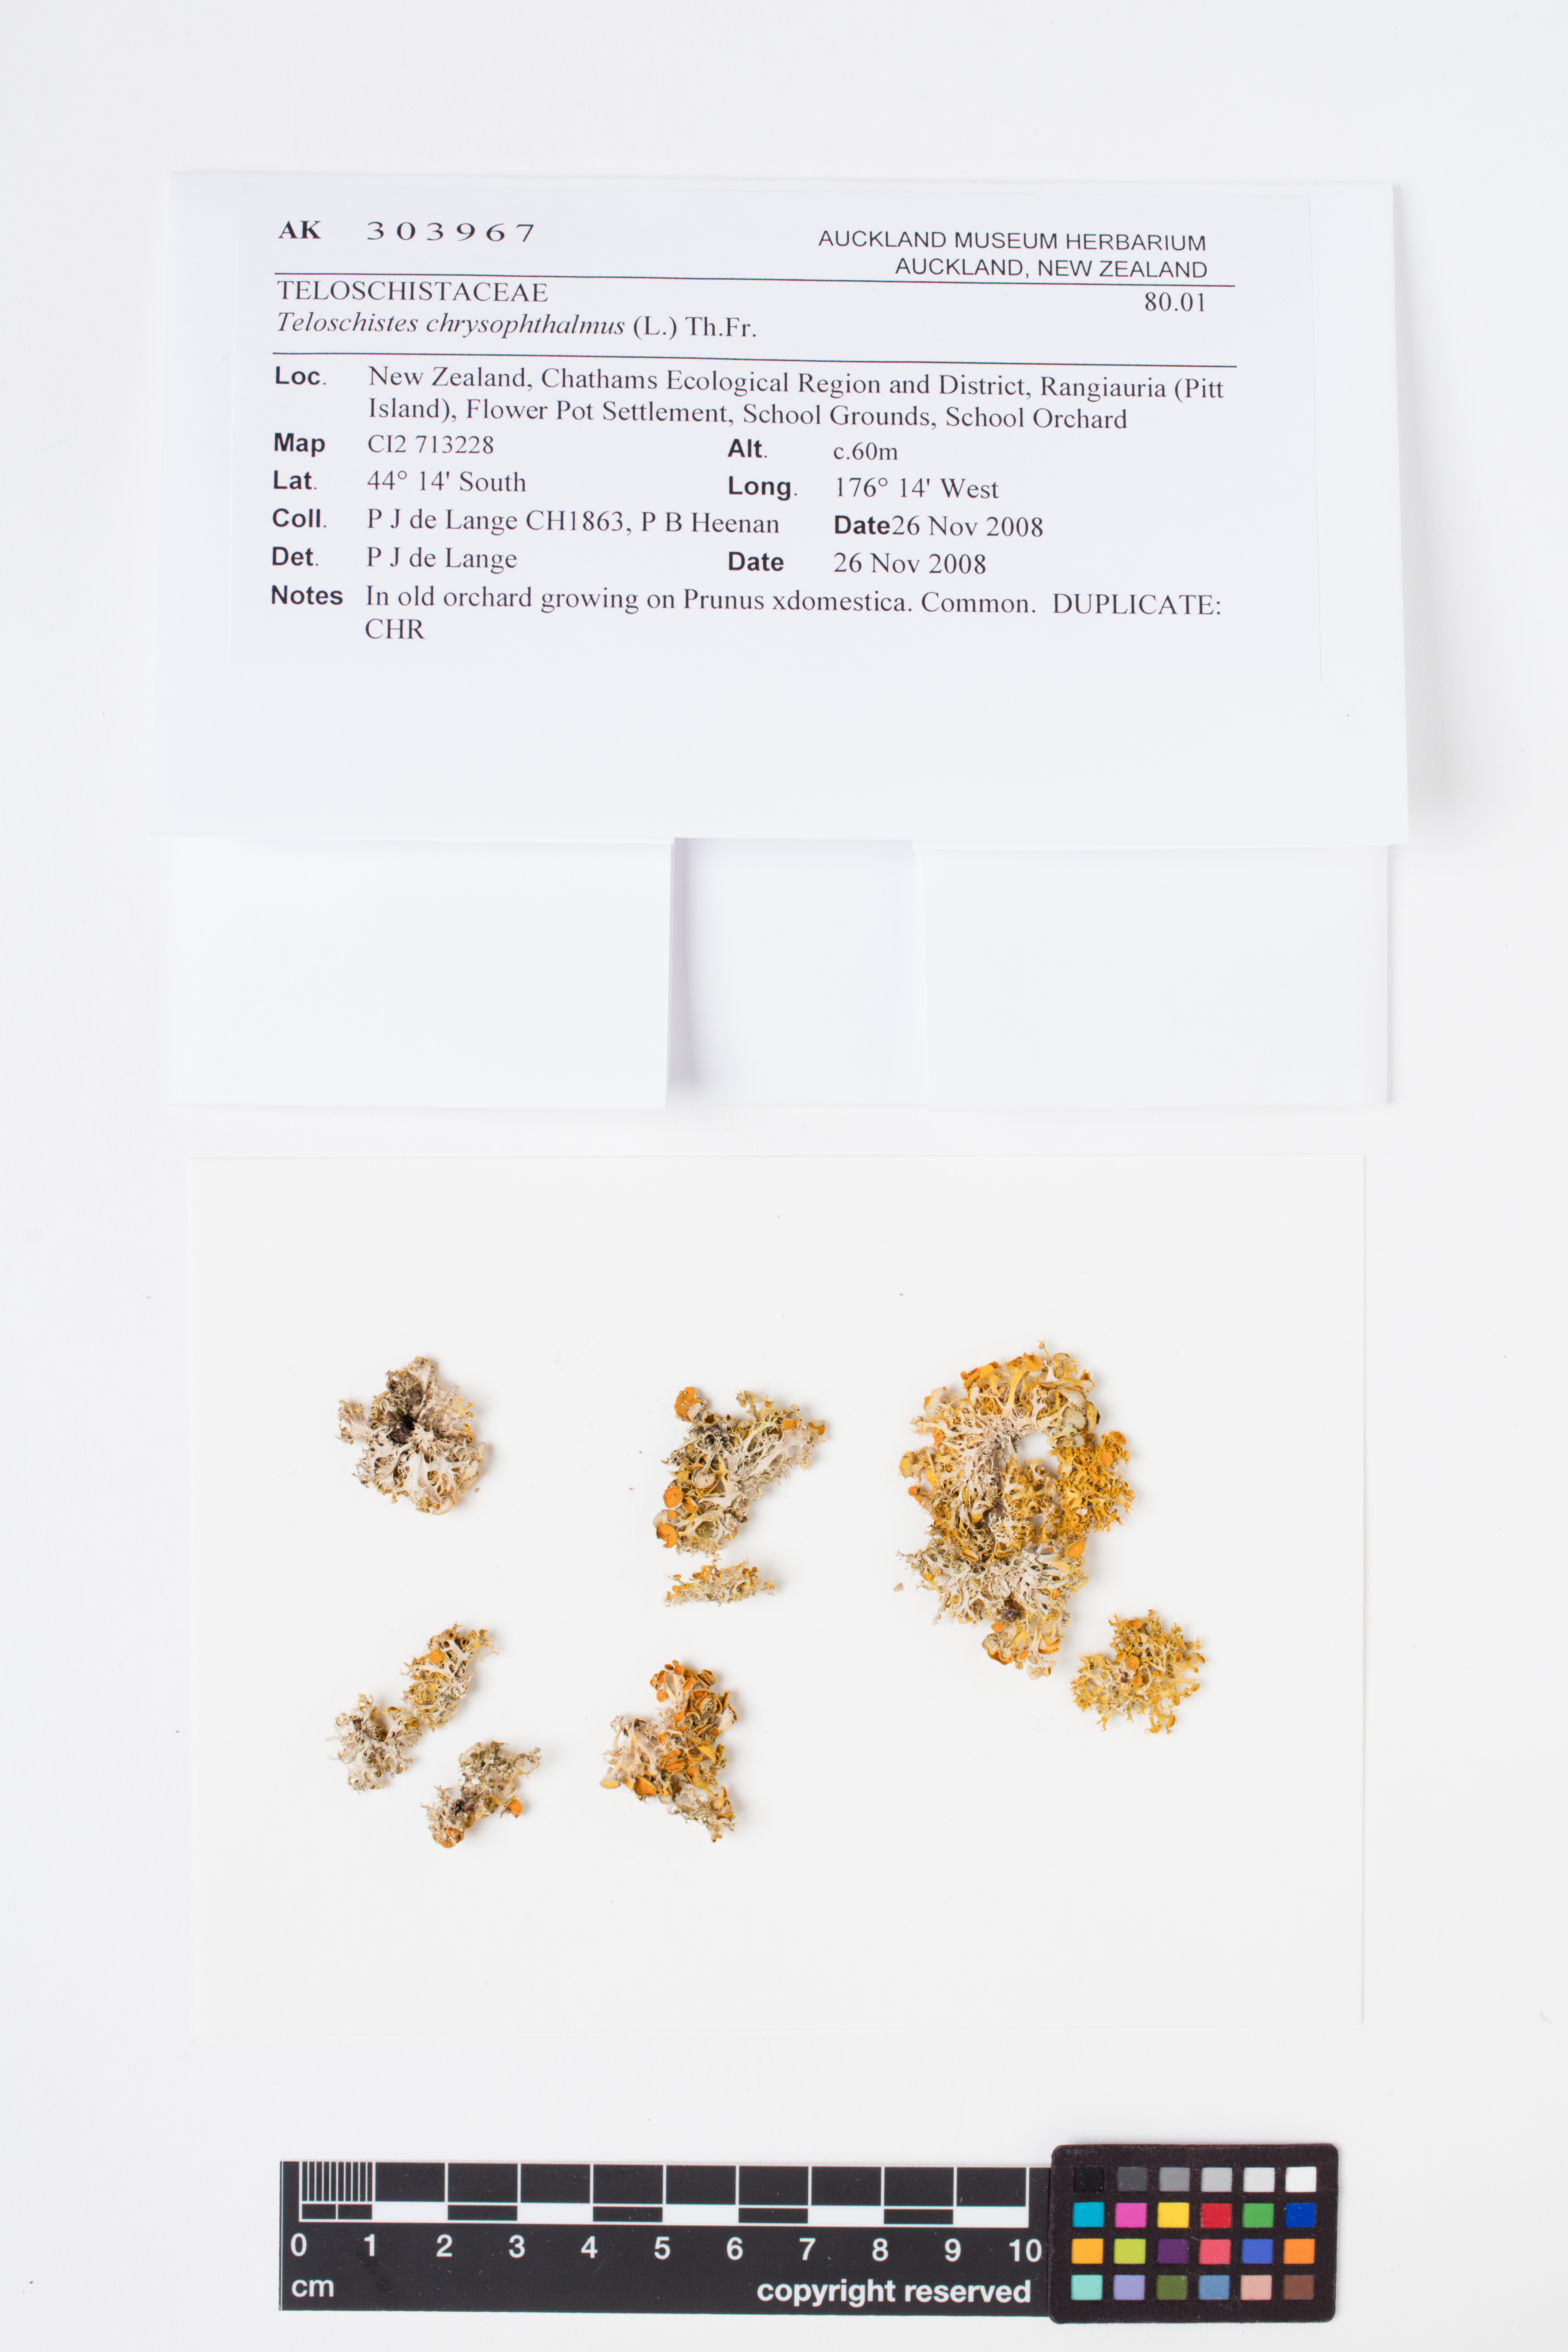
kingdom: Fungi
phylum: Ascomycota
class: Lecanoromycetes
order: Teloschistales
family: Teloschistaceae
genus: Niorma
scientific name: Niorma chrysophthalma
